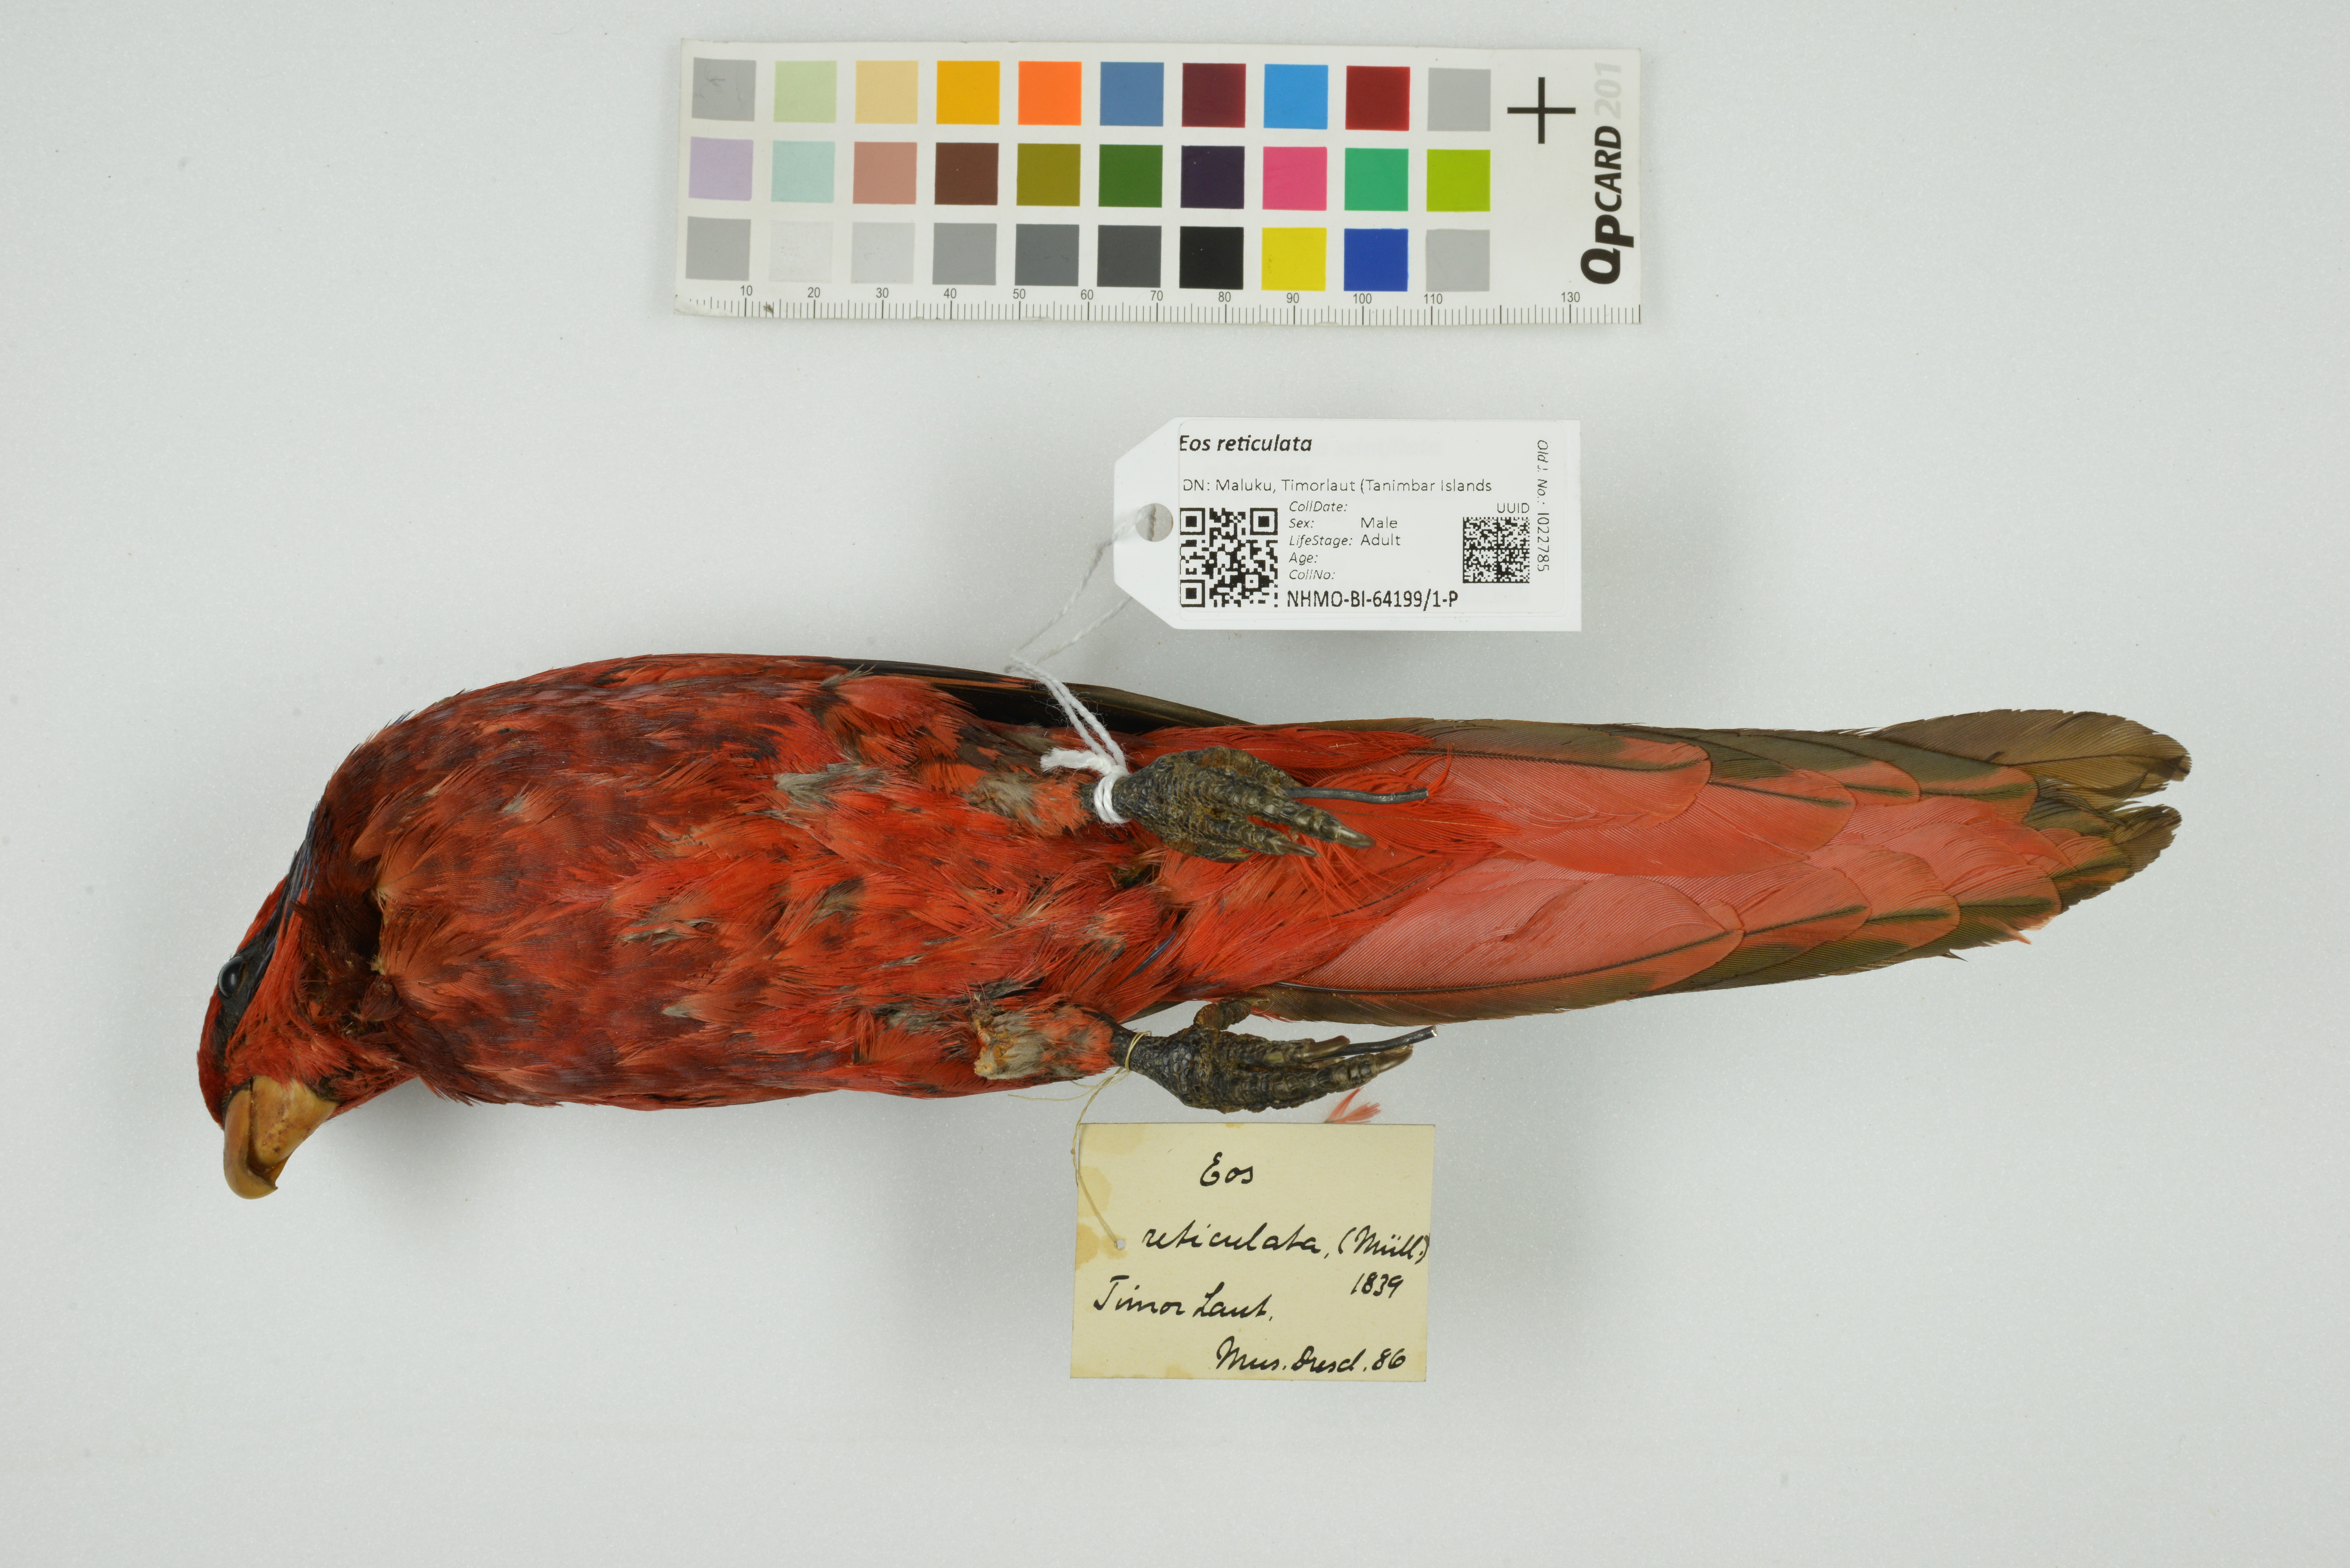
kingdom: Animalia
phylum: Chordata
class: Aves
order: Psittaciformes
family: Psittacidae
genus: Eos
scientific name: Eos reticulata
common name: Blue-streaked lory
